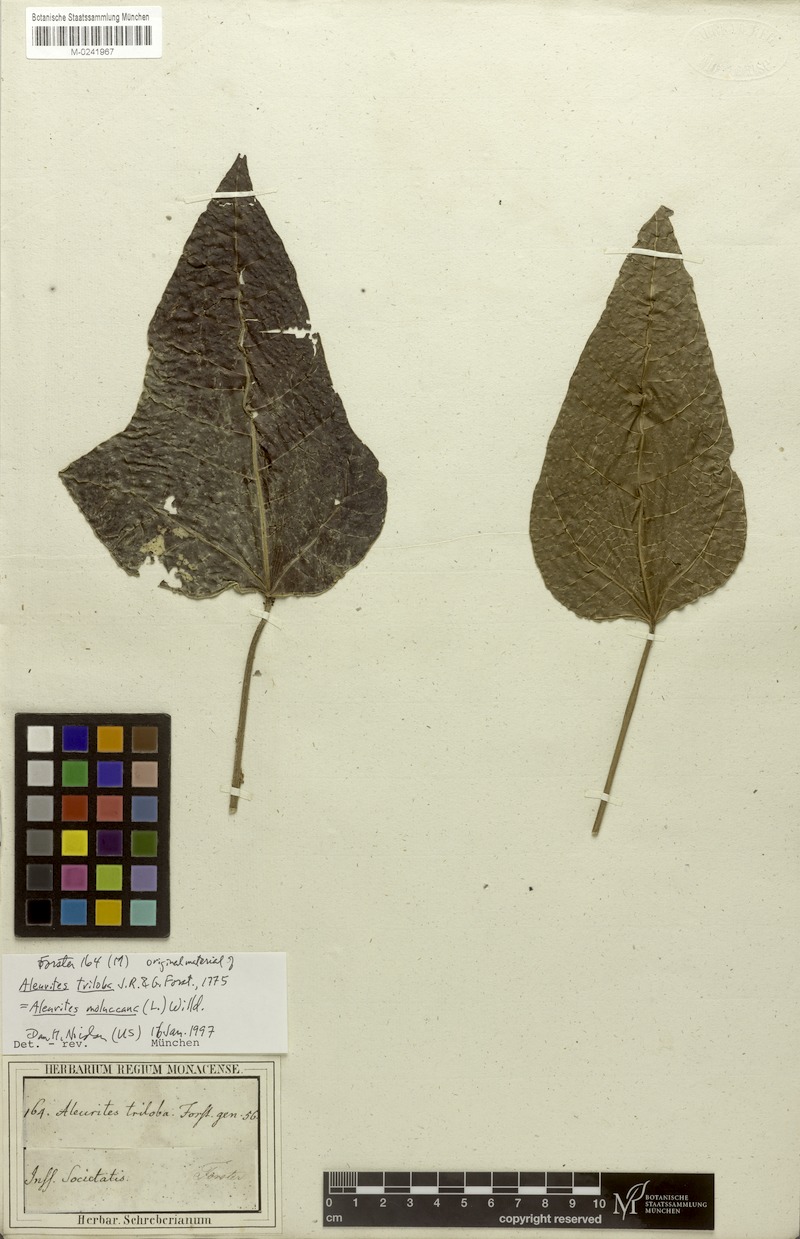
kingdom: Plantae
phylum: Tracheophyta
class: Magnoliopsida
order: Malpighiales
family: Euphorbiaceae
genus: Aleurites
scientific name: Aleurites moluccanus
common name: Candlenut tree
